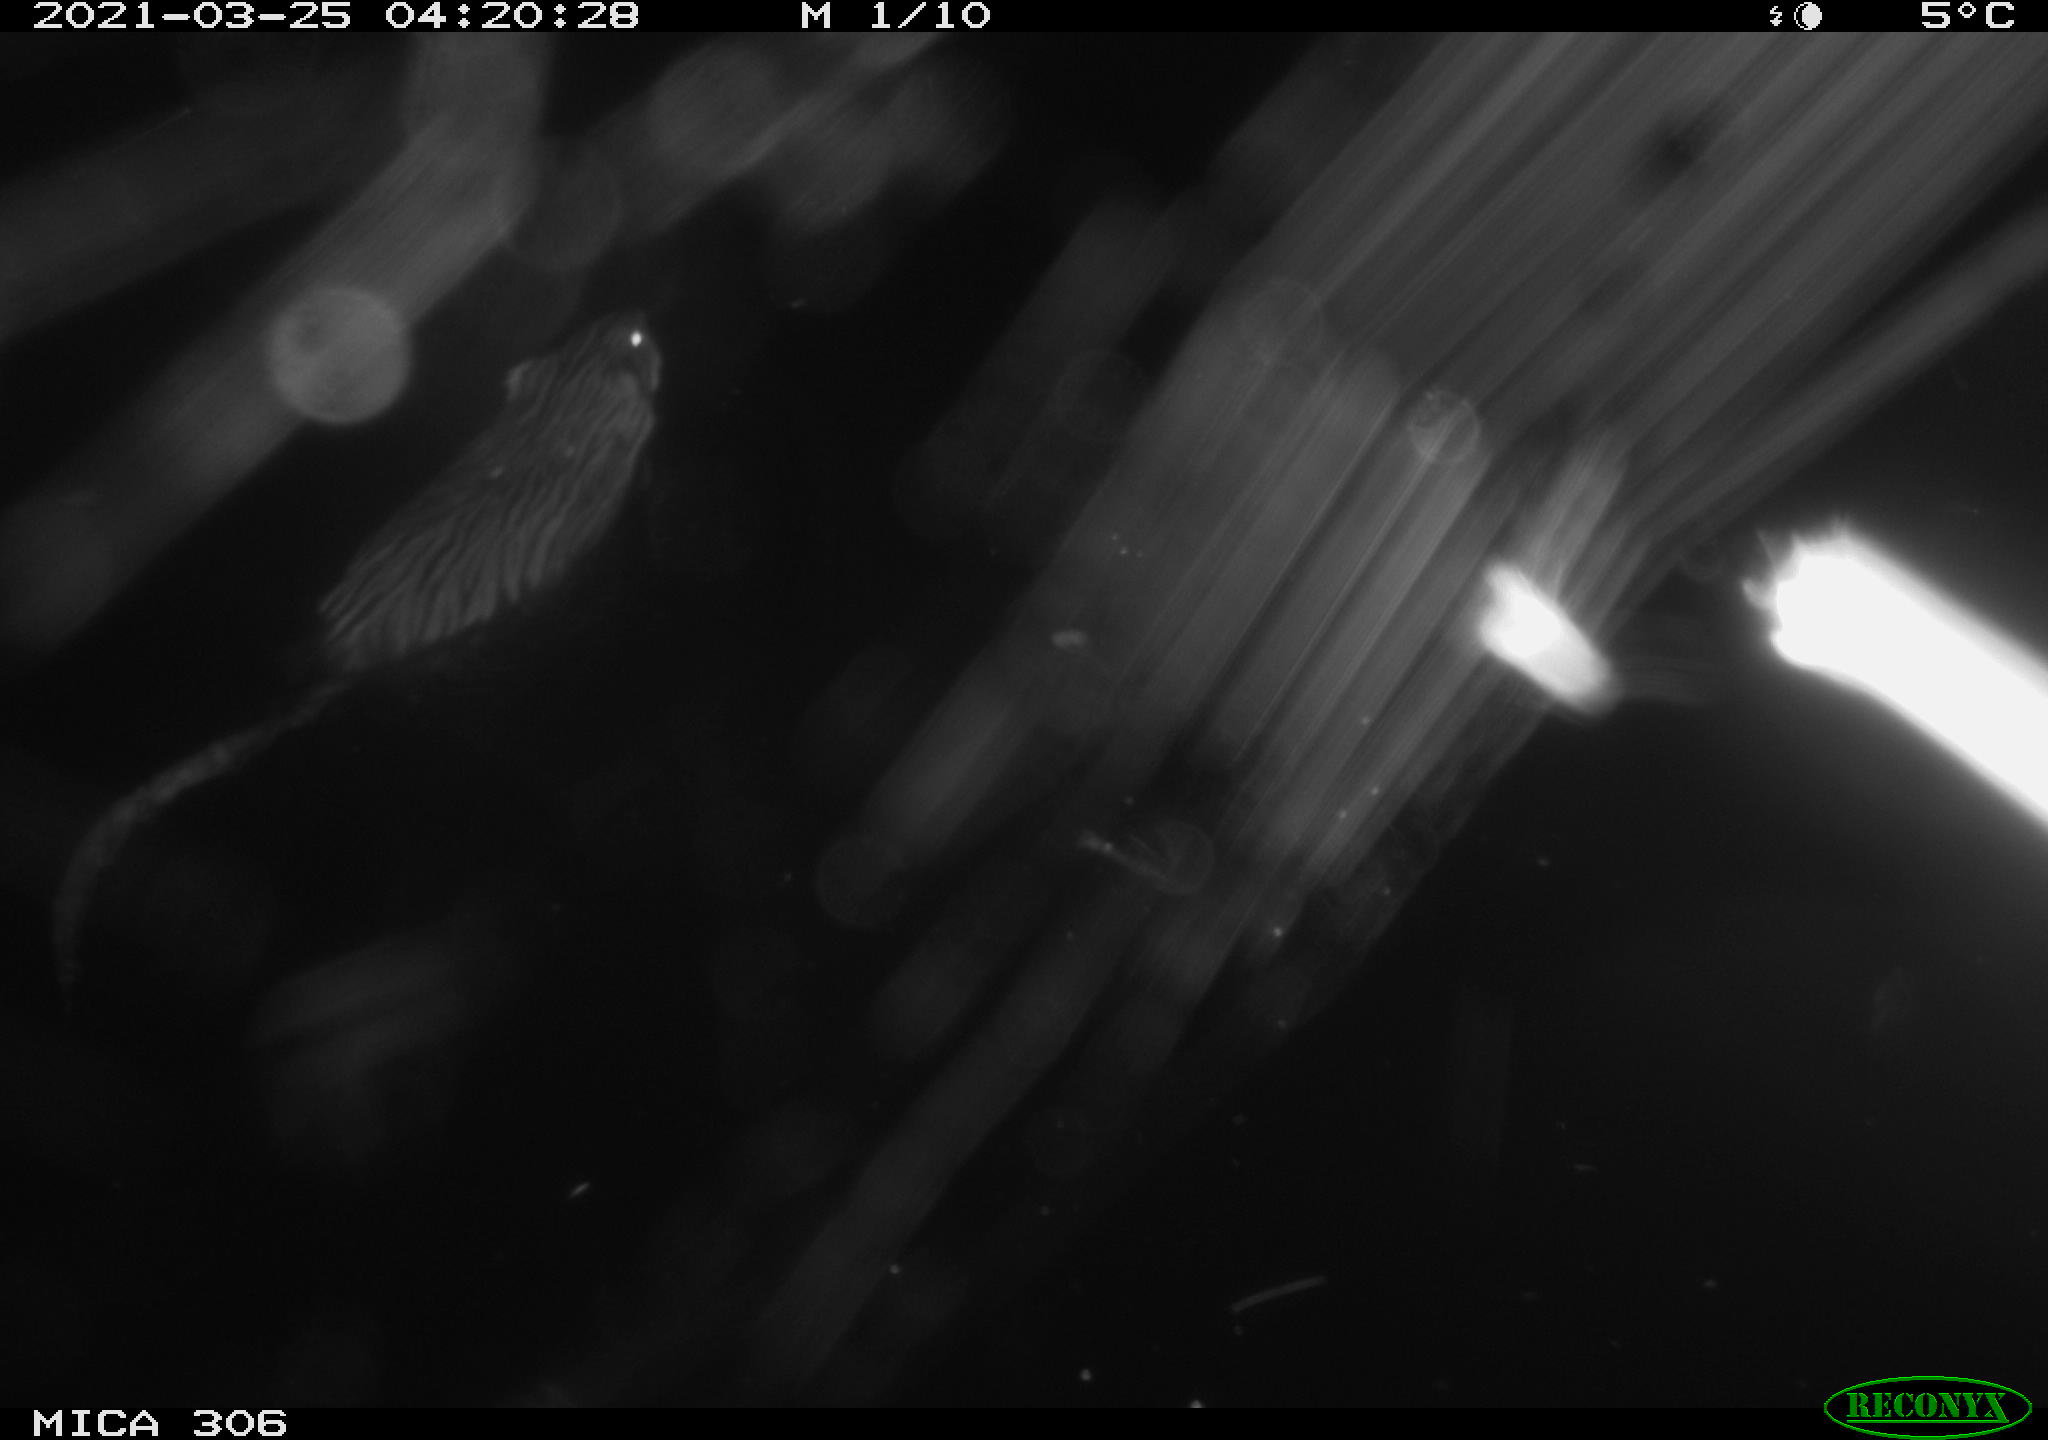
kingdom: Animalia
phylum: Chordata
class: Mammalia
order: Rodentia
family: Cricetidae
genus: Ondatra
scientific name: Ondatra zibethicus
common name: Muskrat
